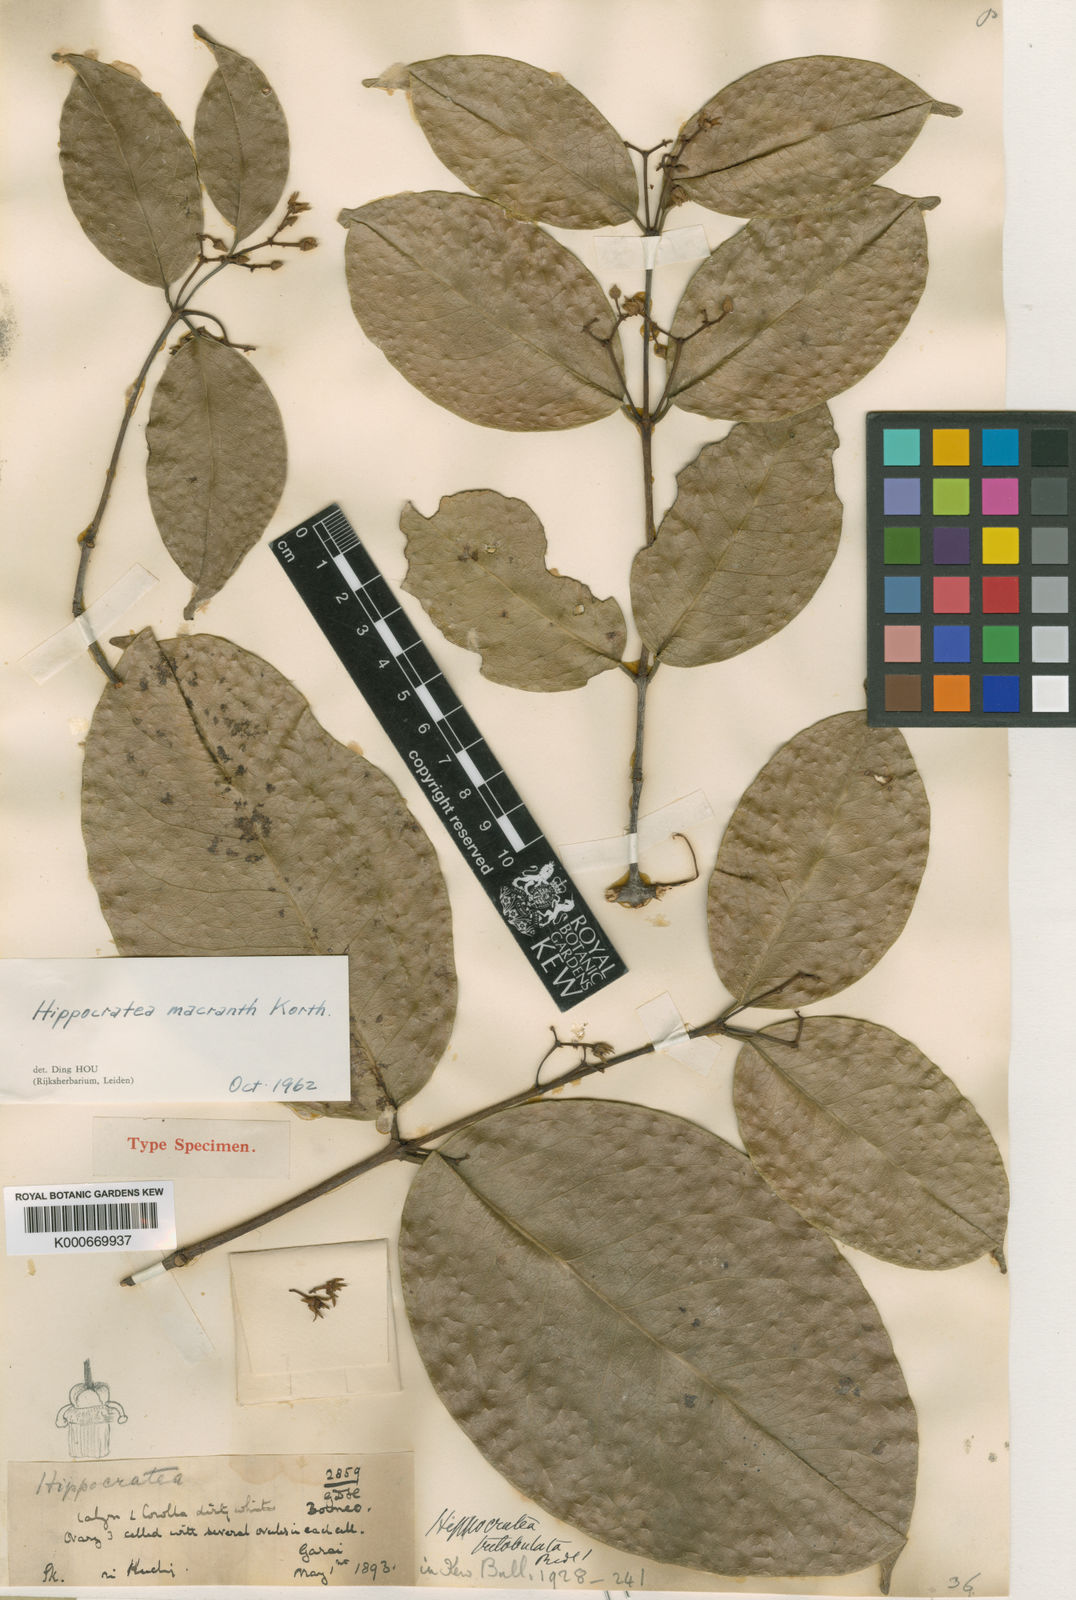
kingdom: Plantae
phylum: Tracheophyta
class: Magnoliopsida
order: Celastrales
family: Celastraceae
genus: Loeseneriella
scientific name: Loeseneriella macrantha
